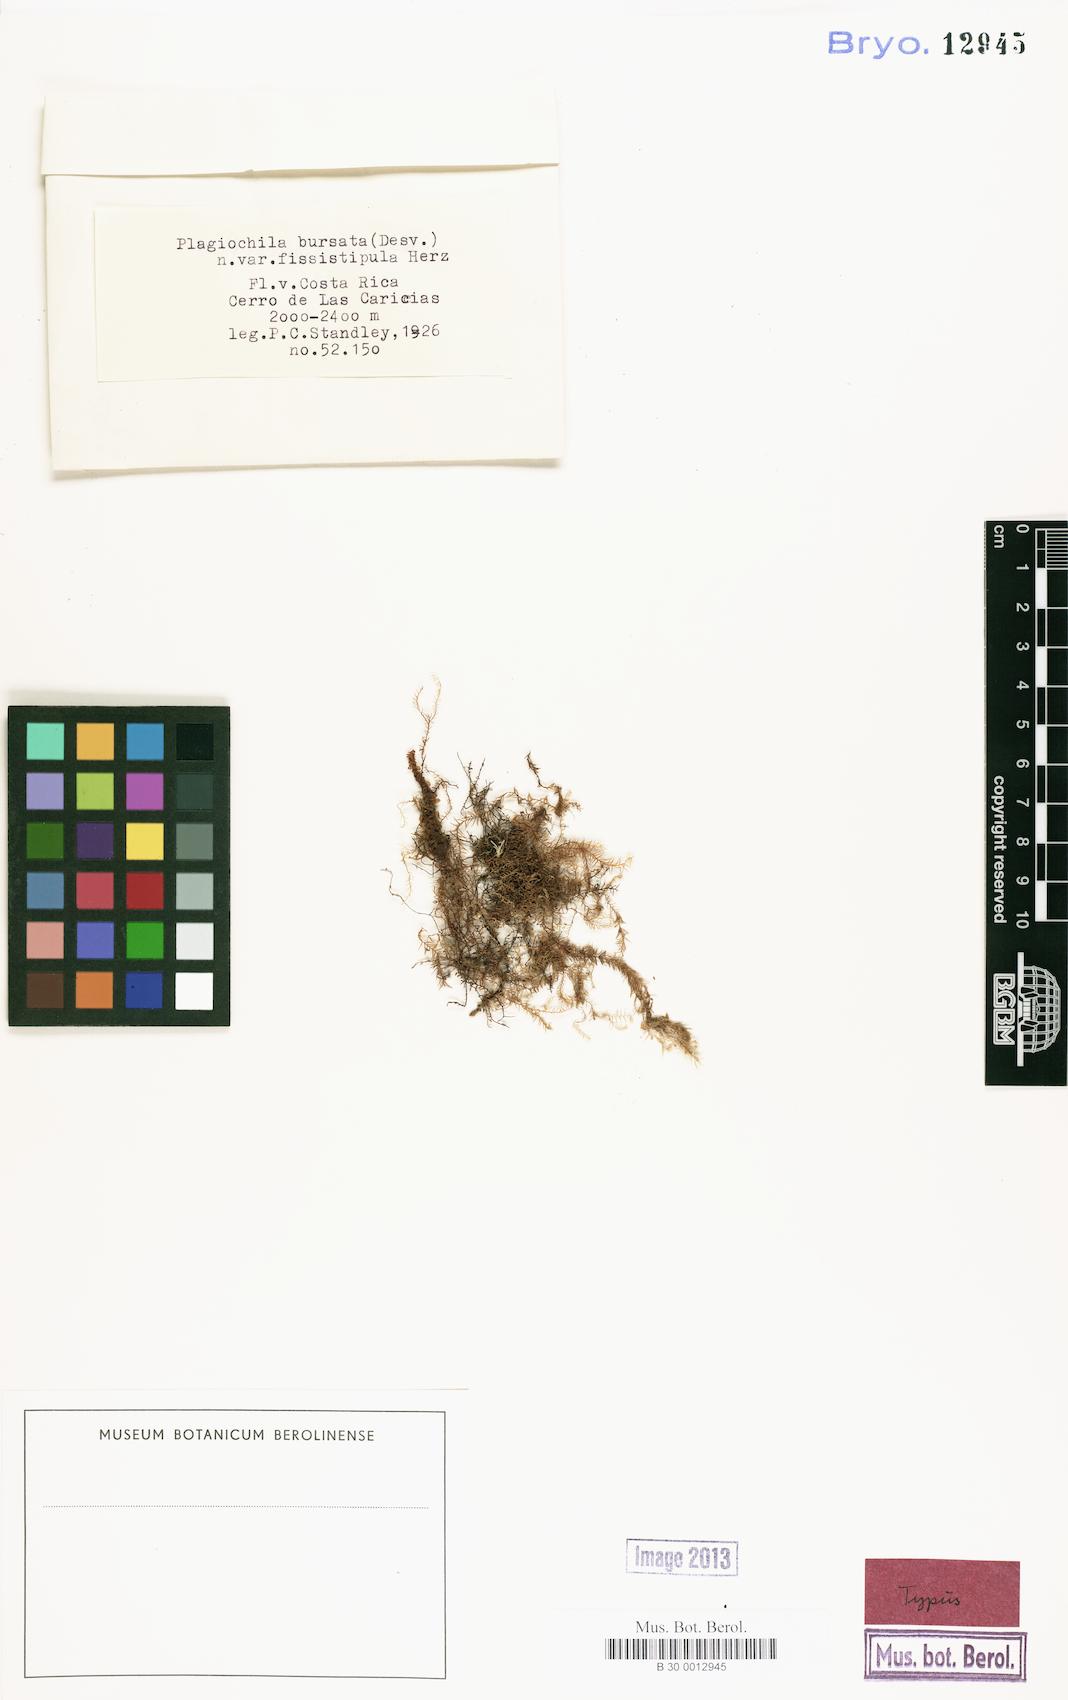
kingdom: Plantae
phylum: Marchantiophyta
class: Jungermanniopsida
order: Jungermanniales
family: Plagiochilaceae
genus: Plagiochila
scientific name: Plagiochila aerea
